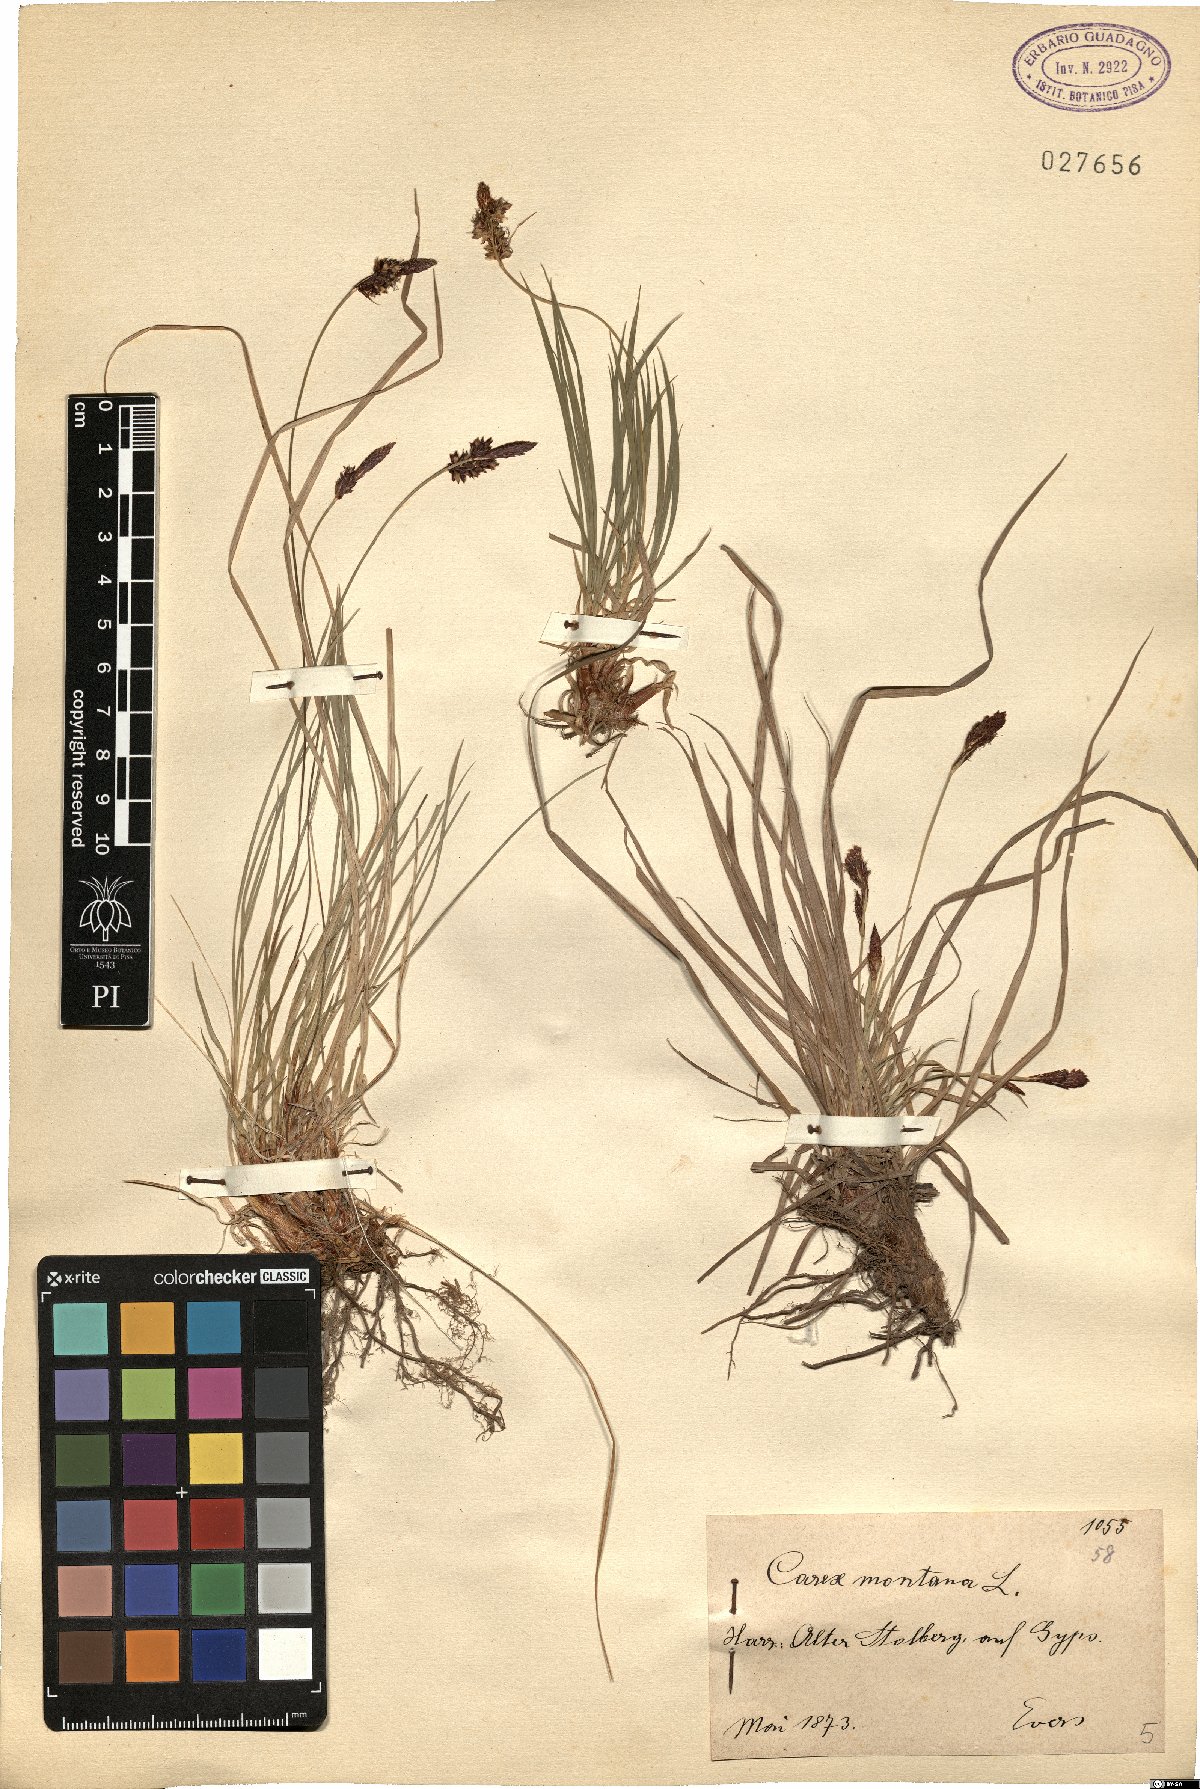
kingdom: Plantae
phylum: Tracheophyta
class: Liliopsida
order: Poales
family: Cyperaceae
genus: Carex
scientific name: Carex montana
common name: Soft-leaved sedge
